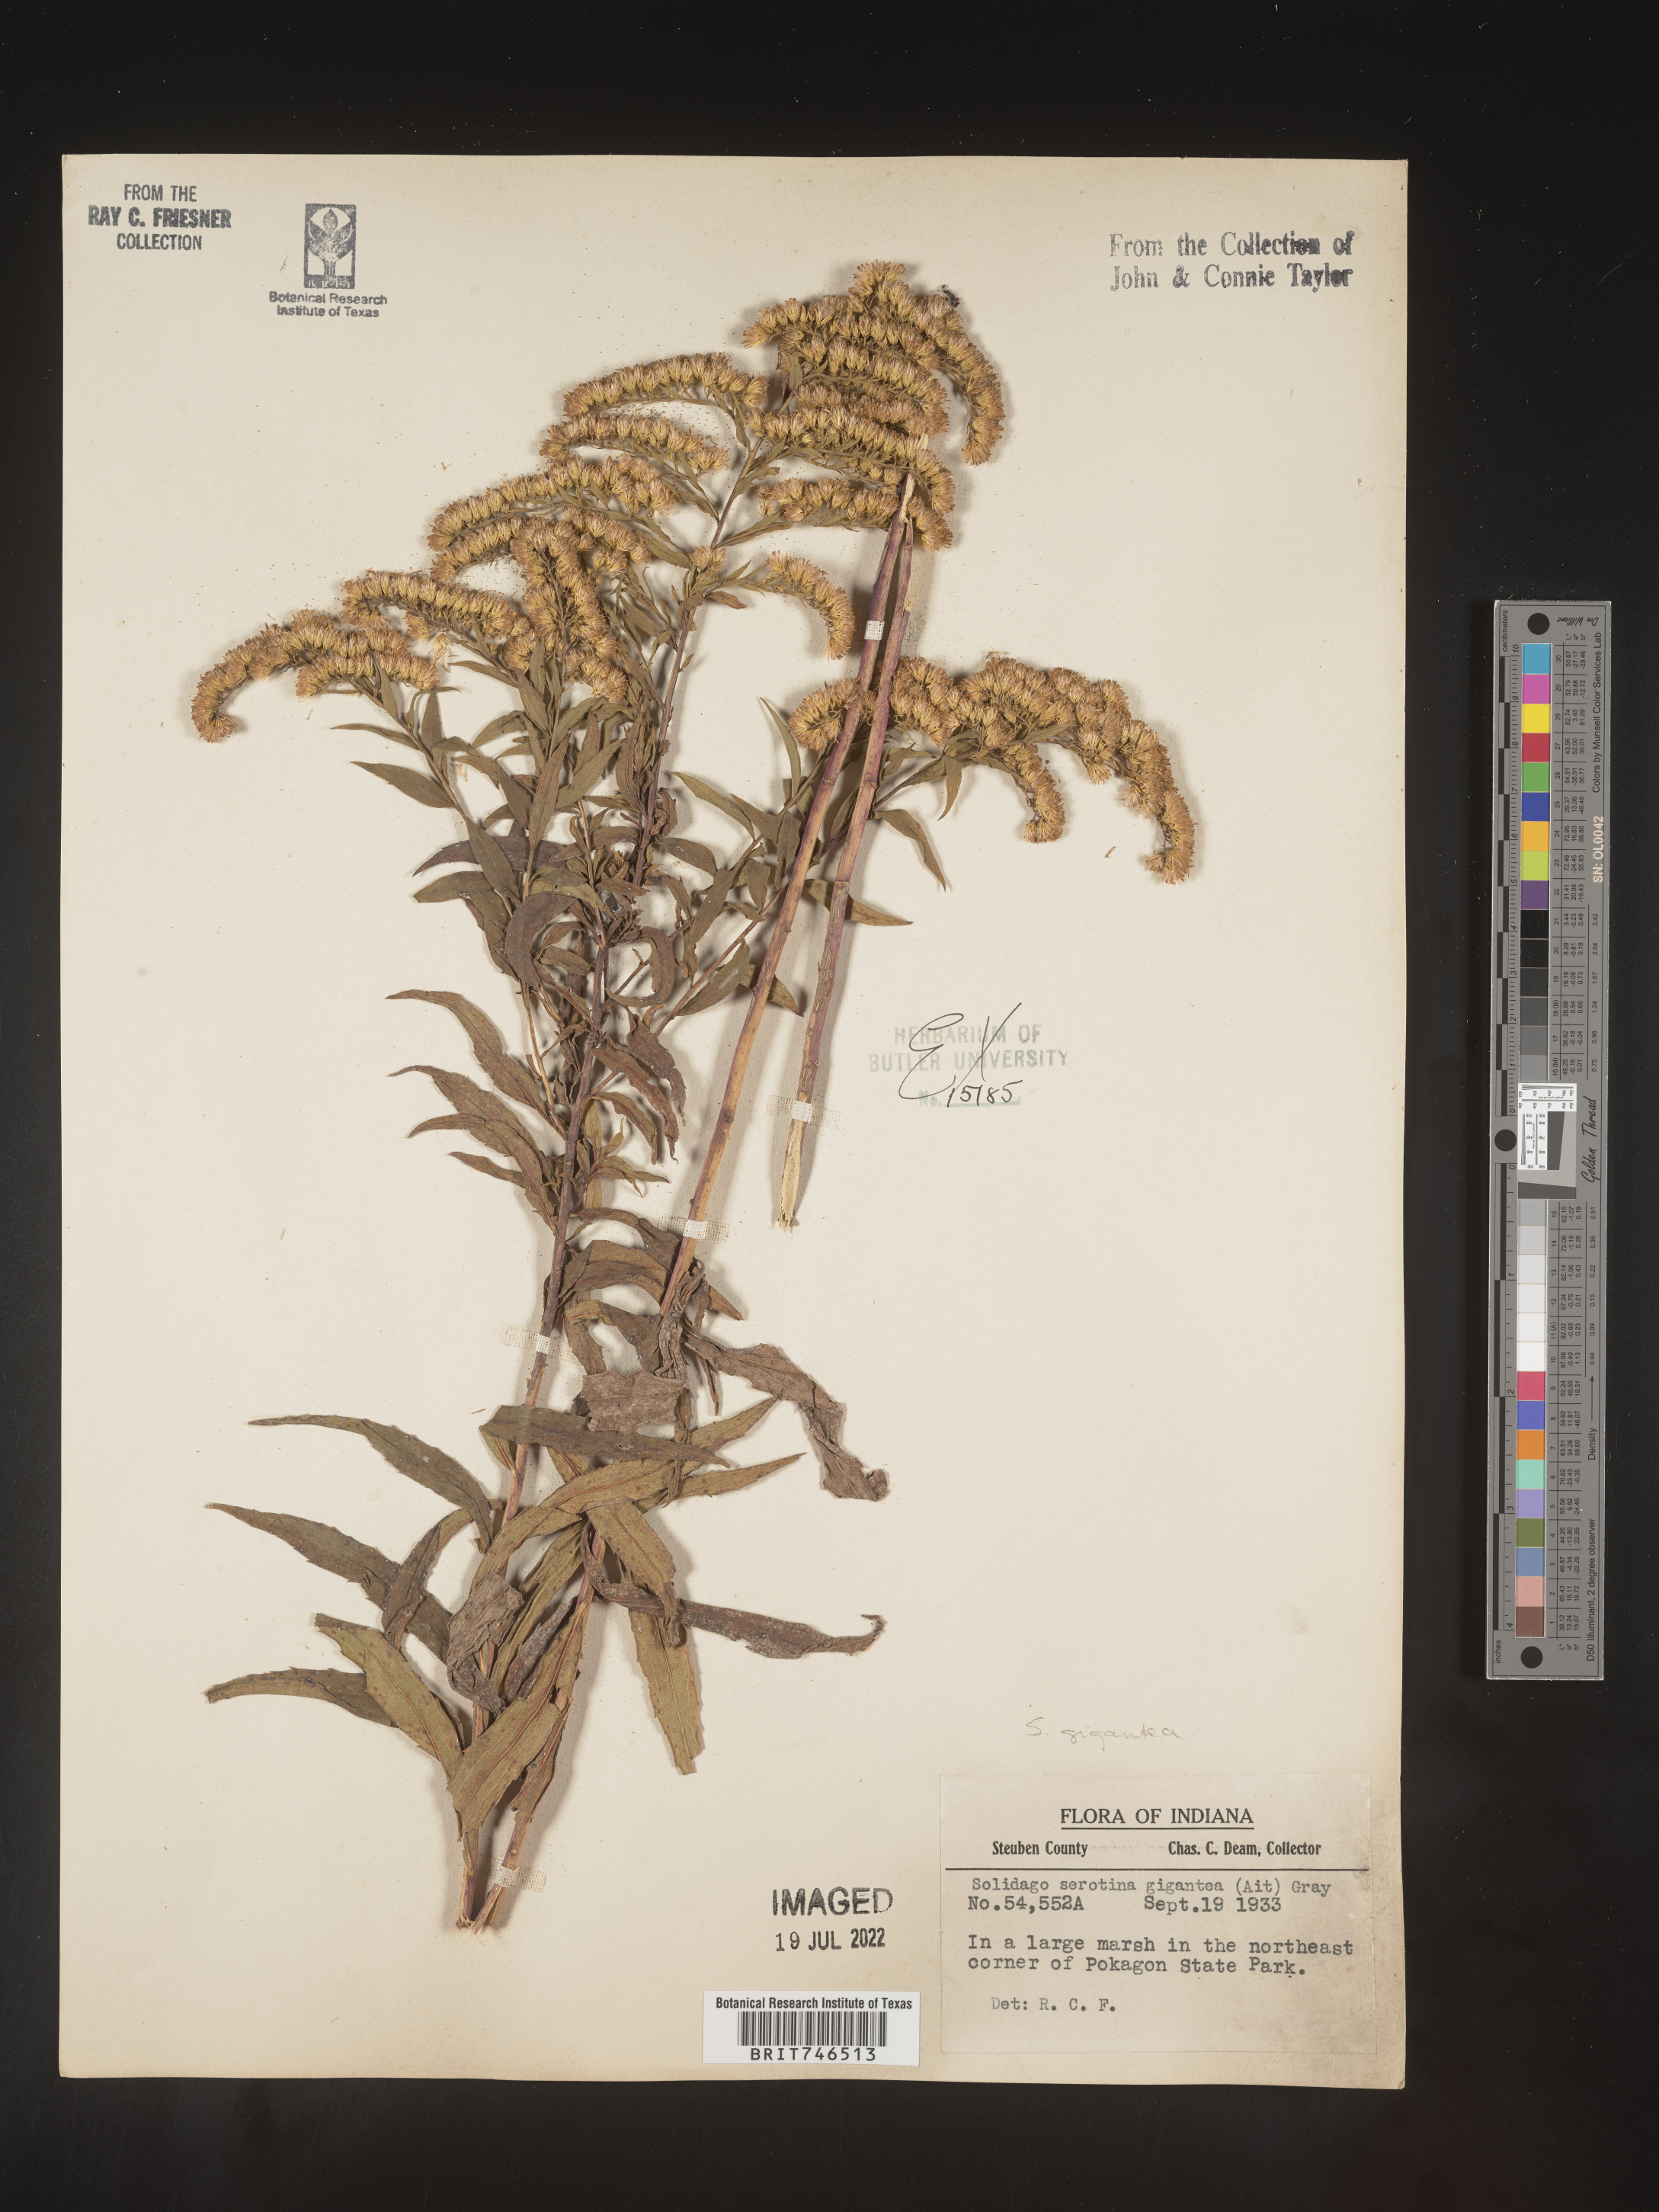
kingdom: Plantae
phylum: Tracheophyta
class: Magnoliopsida
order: Asterales
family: Asteraceae
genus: Solidago
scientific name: Solidago gigantea
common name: Giant goldenrod
